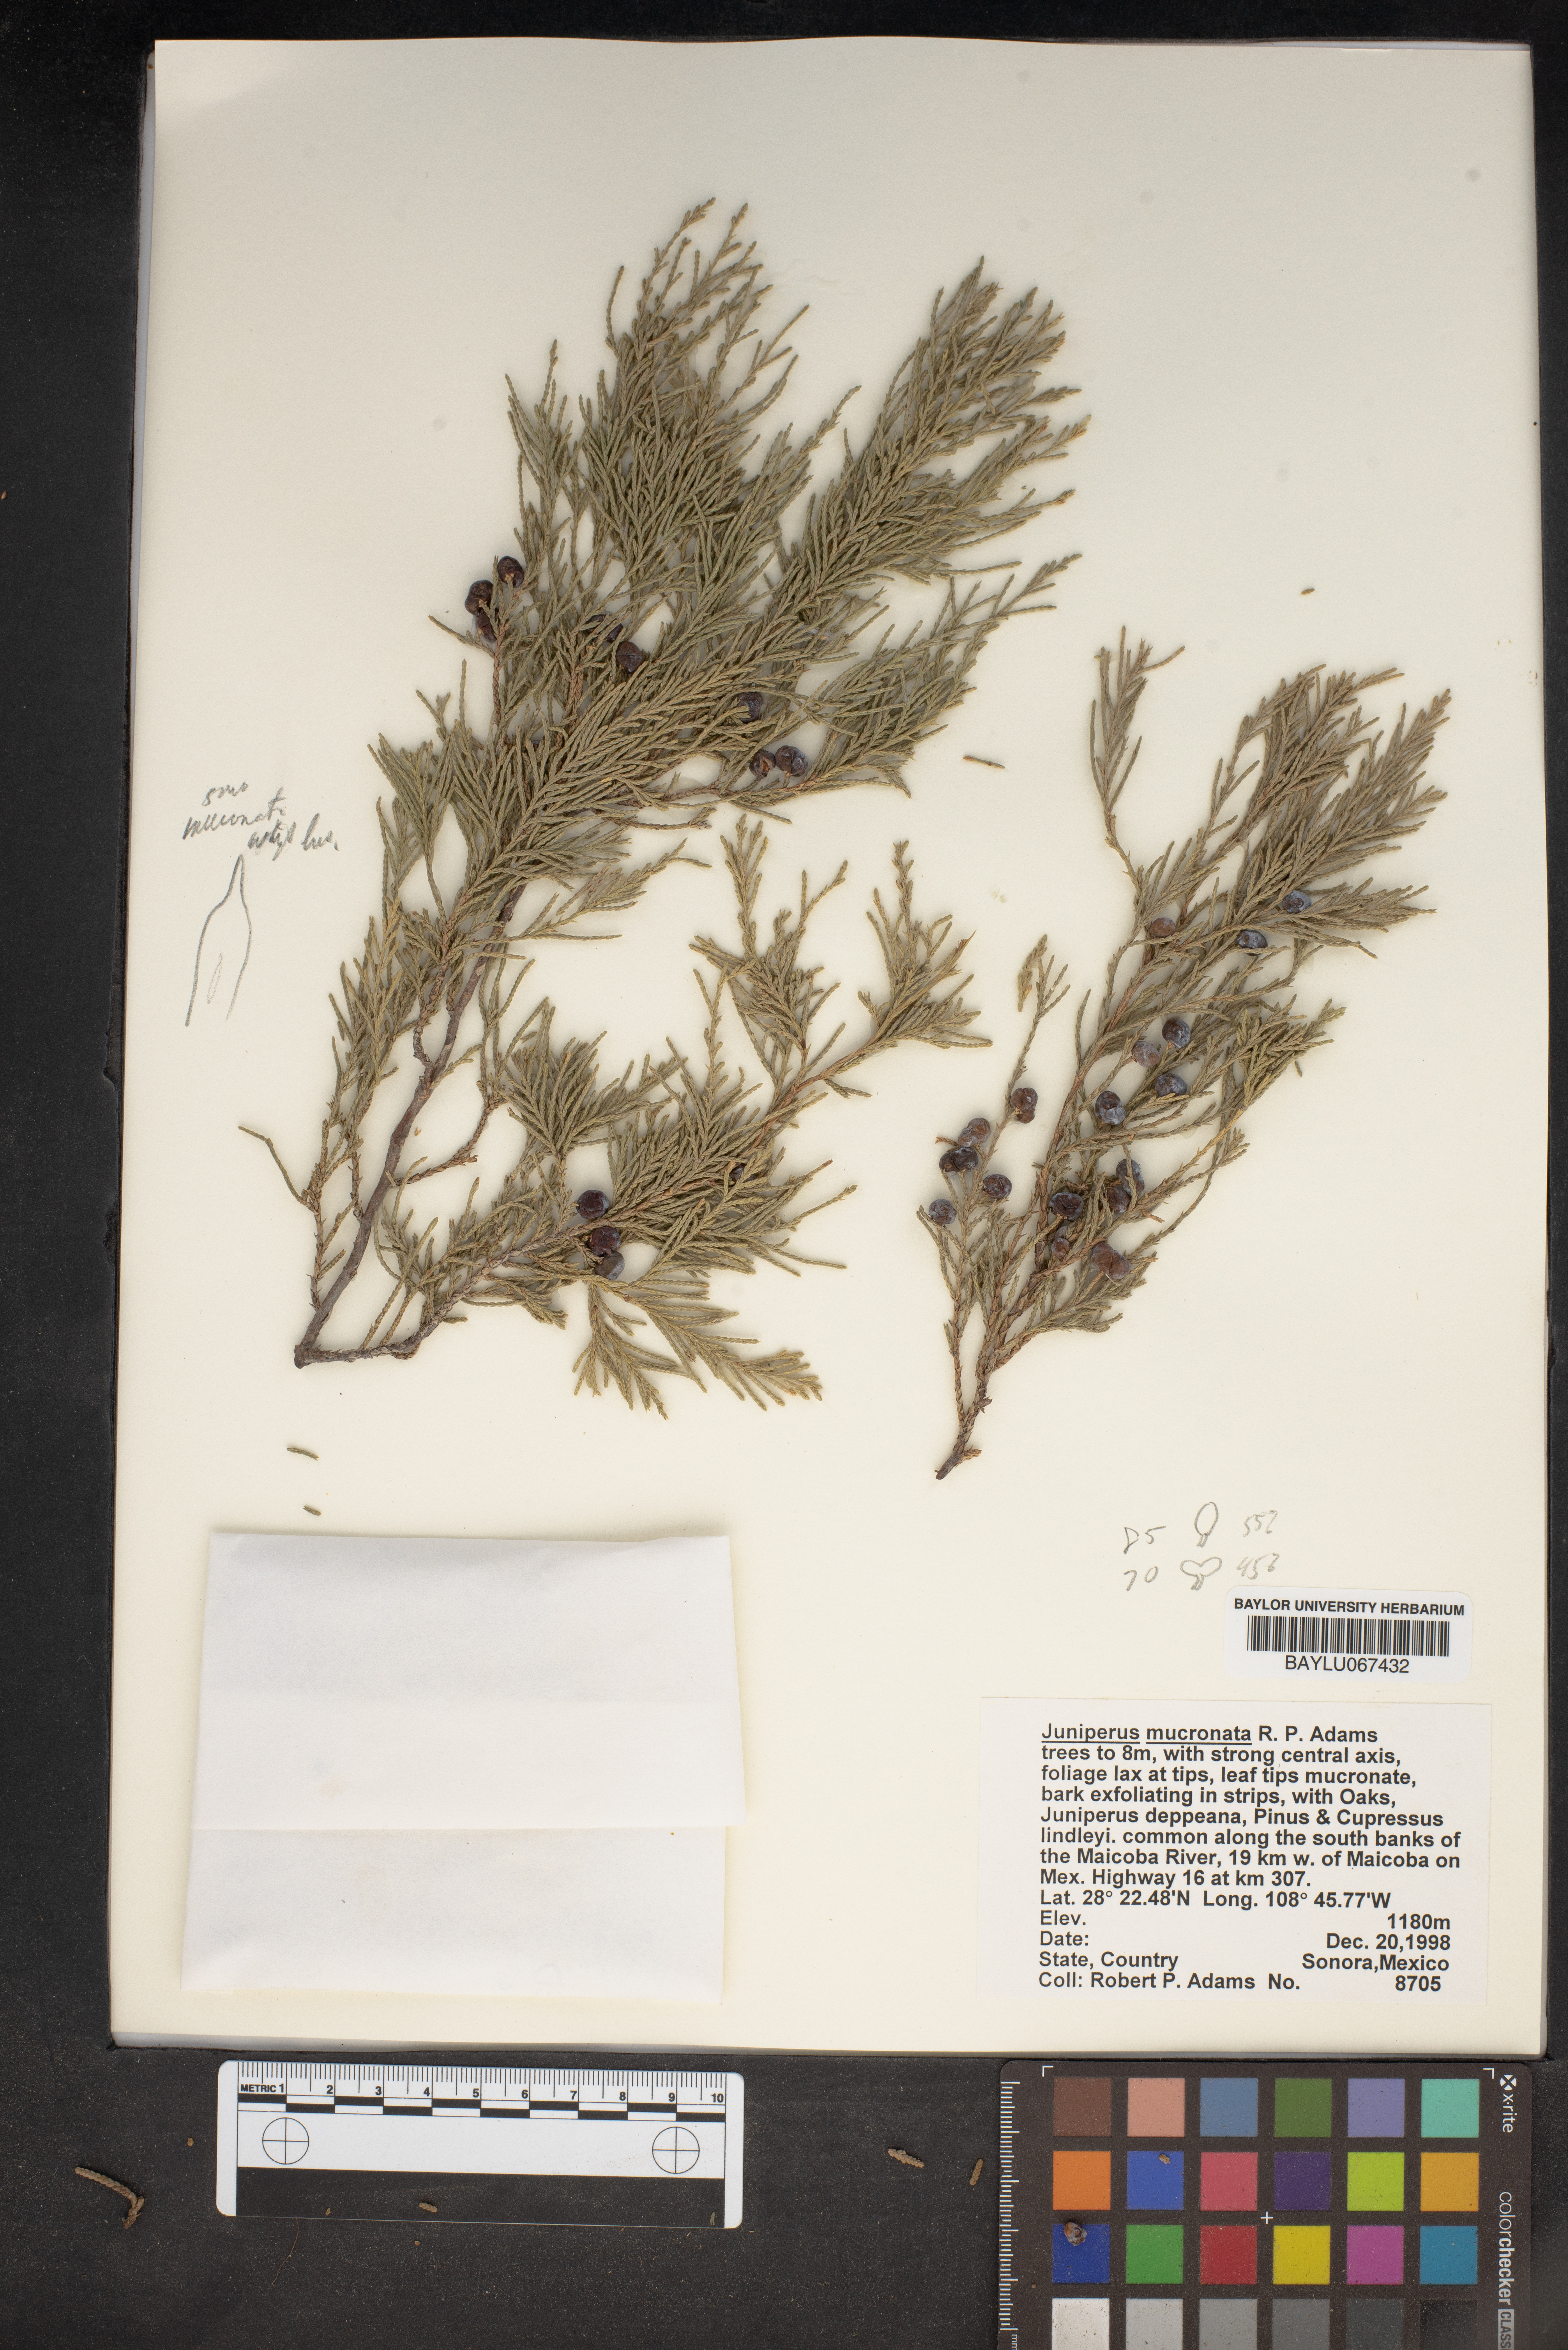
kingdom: Plantae
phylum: Tracheophyta
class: Pinopsida
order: Pinales
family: Cupressaceae
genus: Juniperus
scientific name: Juniperus blancoi
